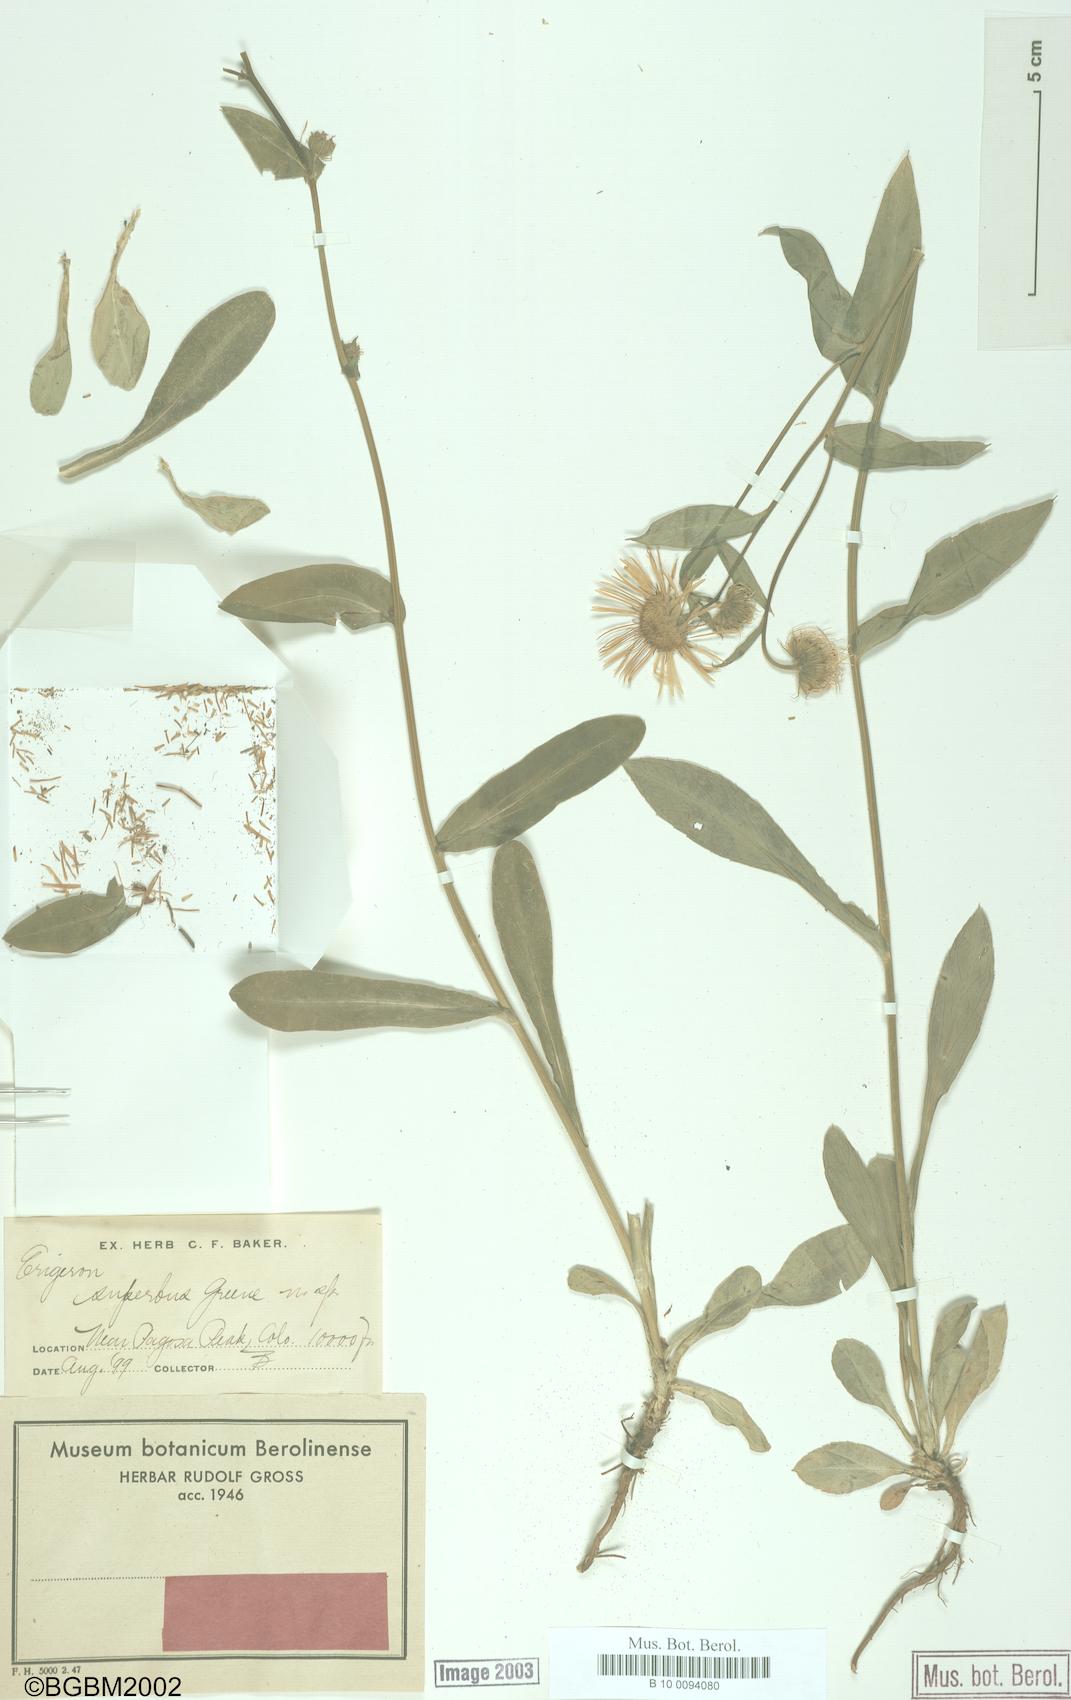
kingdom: Plantae
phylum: Tracheophyta
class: Magnoliopsida
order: Asterales
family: Asteraceae
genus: Erigeron
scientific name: Erigeron eximius
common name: Spruce-fir fleabane
